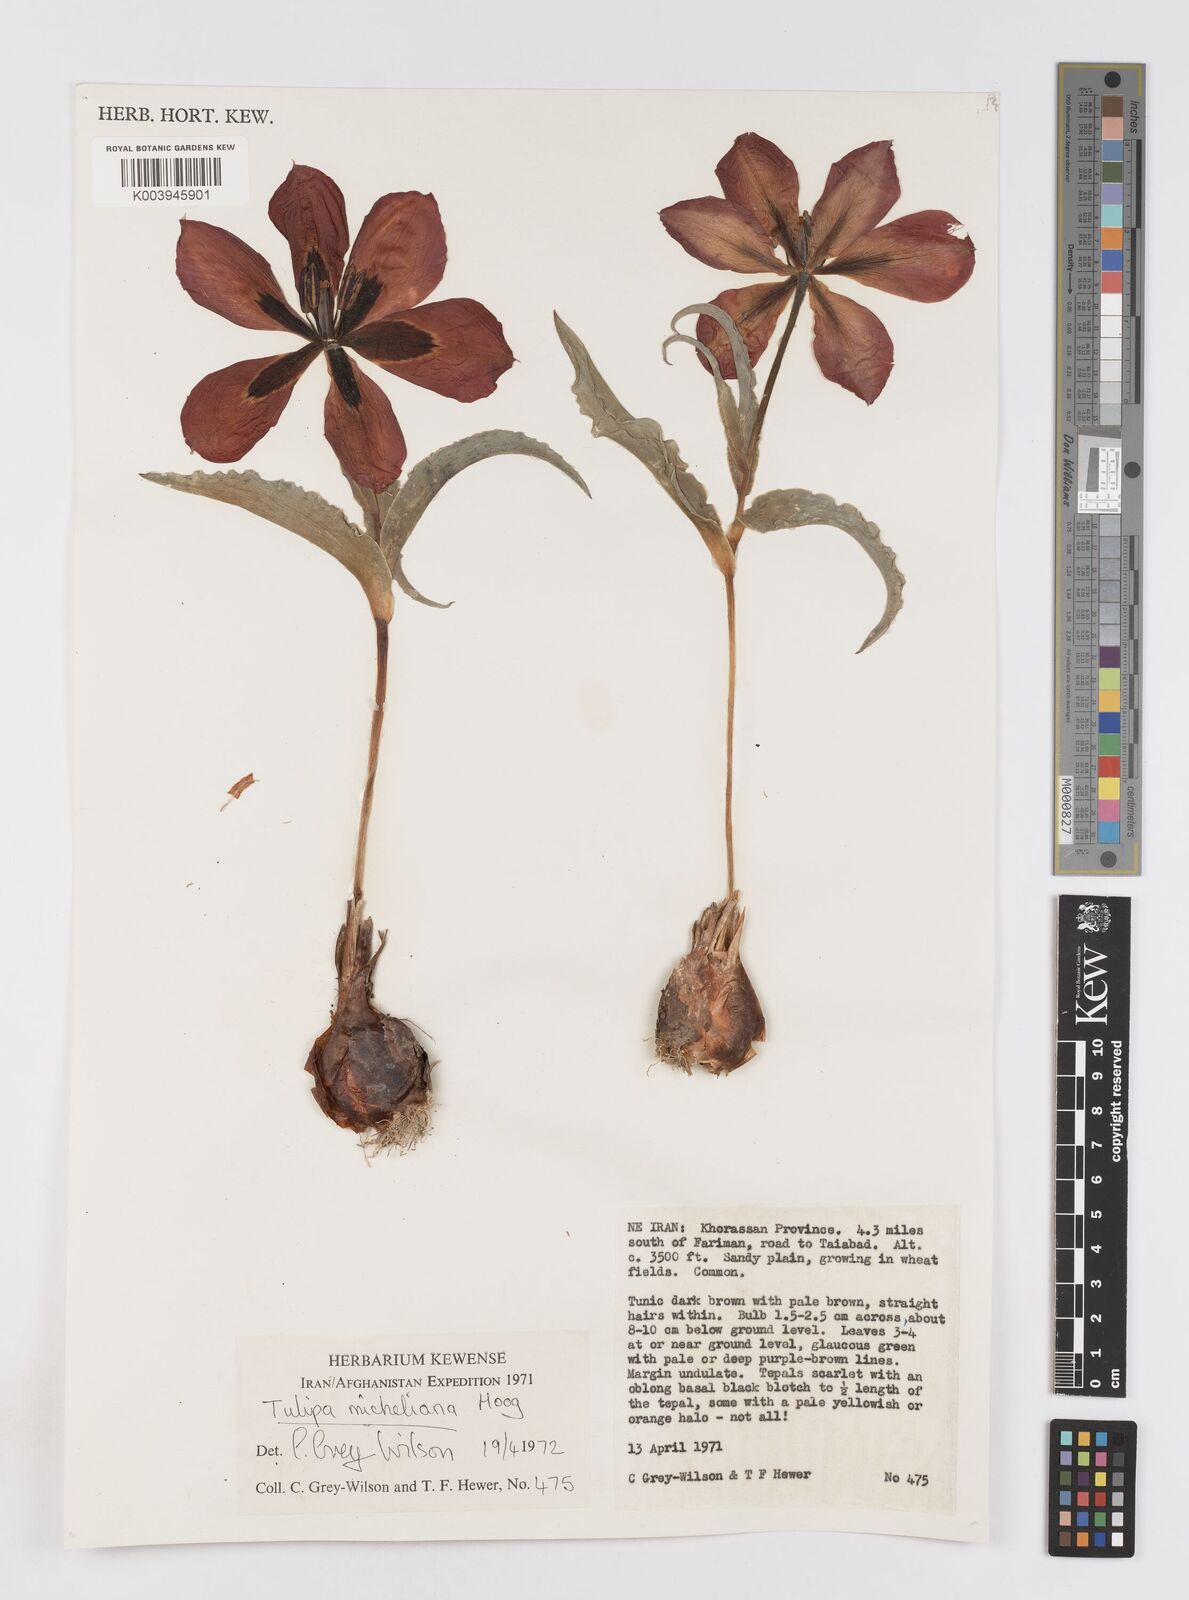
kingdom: Plantae
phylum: Tracheophyta
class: Liliopsida
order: Liliales
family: Liliaceae
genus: Tulipa
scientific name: Tulipa undulatifolia
